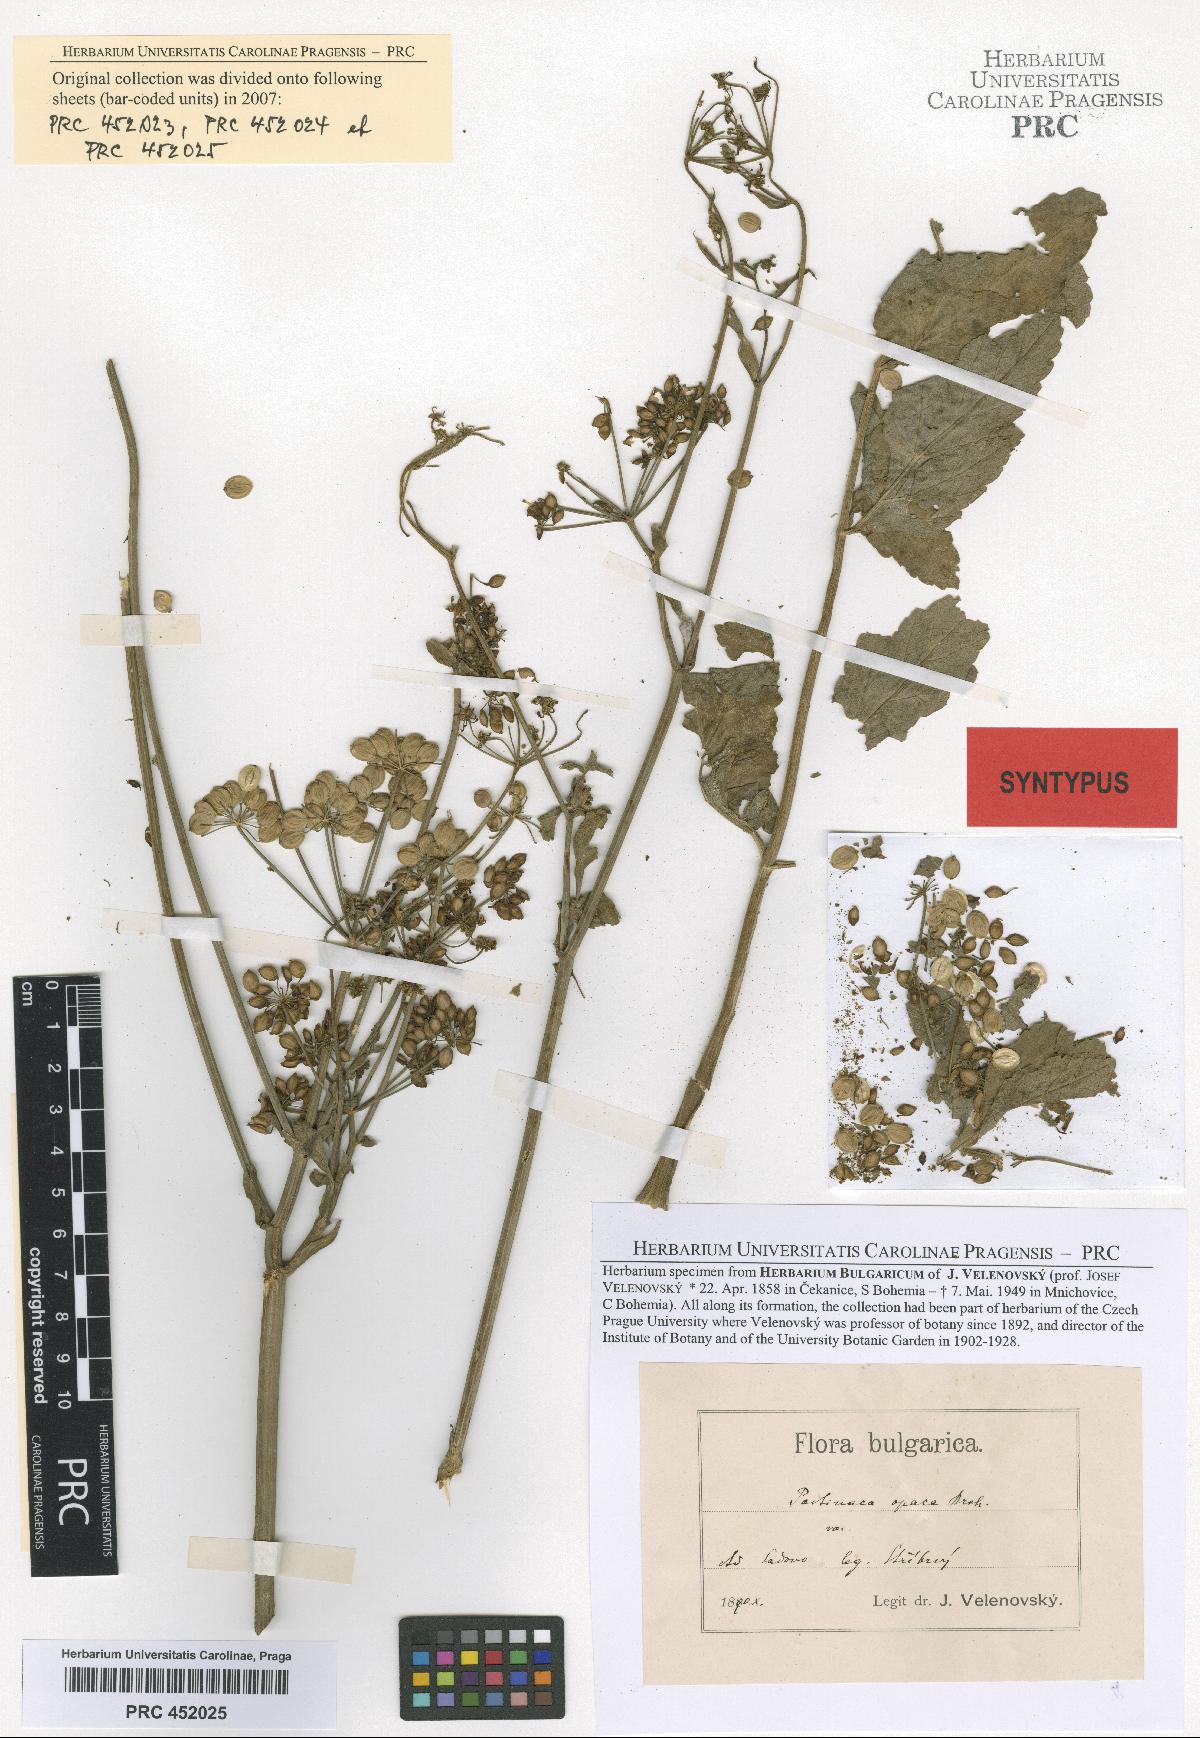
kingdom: Plantae
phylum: Tracheophyta
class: Magnoliopsida
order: Apiales
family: Apiaceae
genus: Pastinaca
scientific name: Pastinaca sativa
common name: Wild parsnip
